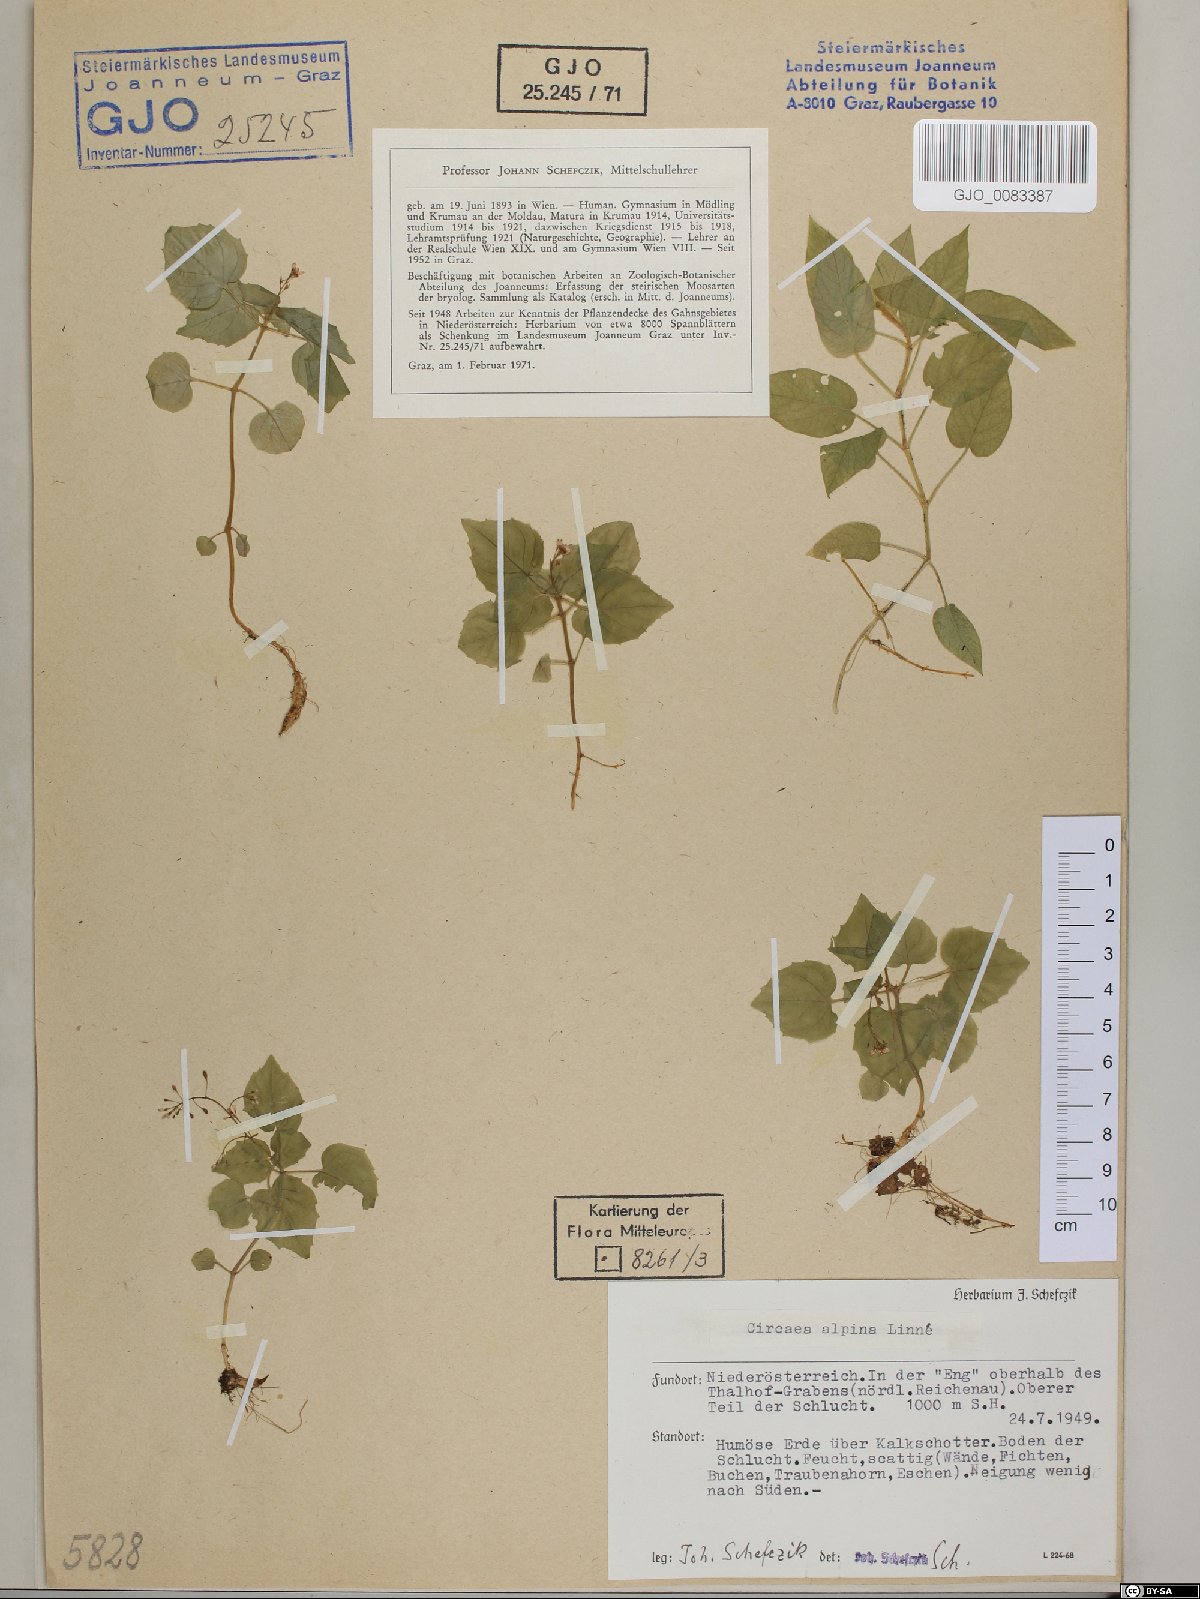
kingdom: Plantae
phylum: Tracheophyta
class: Magnoliopsida
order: Myrtales
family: Onagraceae
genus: Circaea
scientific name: Circaea alpina
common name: Alpine enchanter's-nightshade
